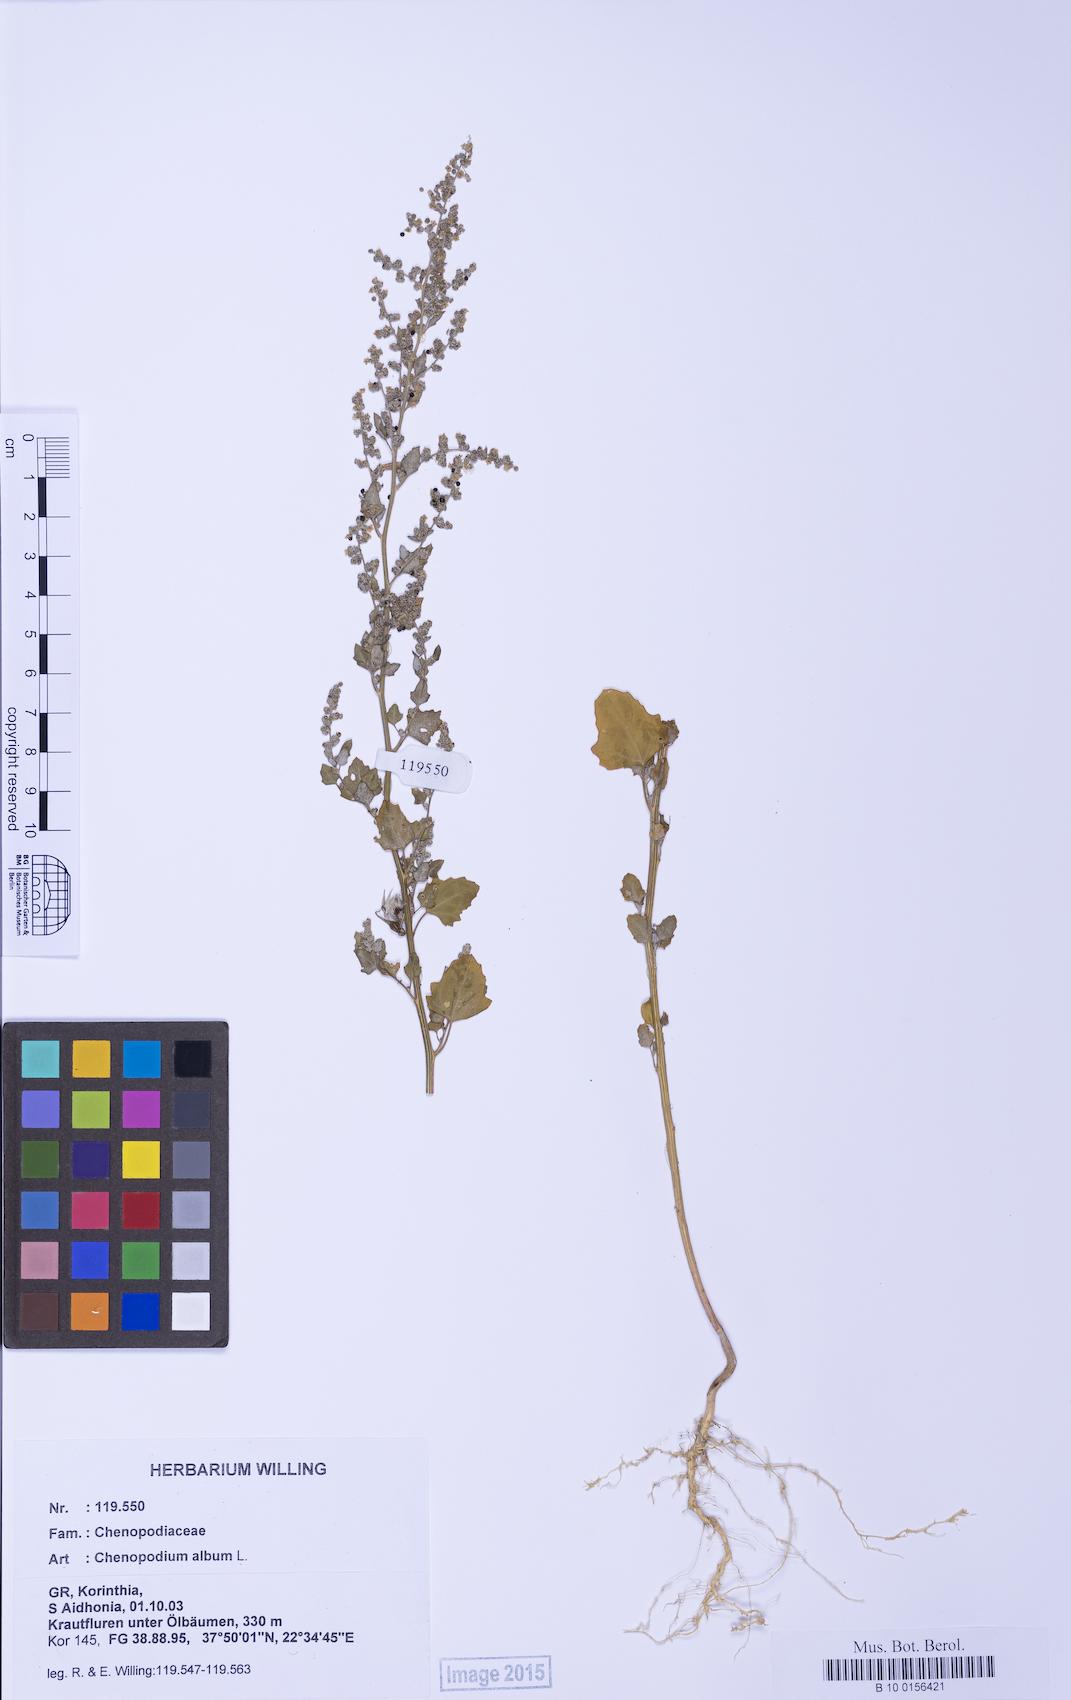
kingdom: Plantae
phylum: Tracheophyta
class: Magnoliopsida
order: Caryophyllales
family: Amaranthaceae
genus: Chenopodium
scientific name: Chenopodium album
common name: Fat-hen
